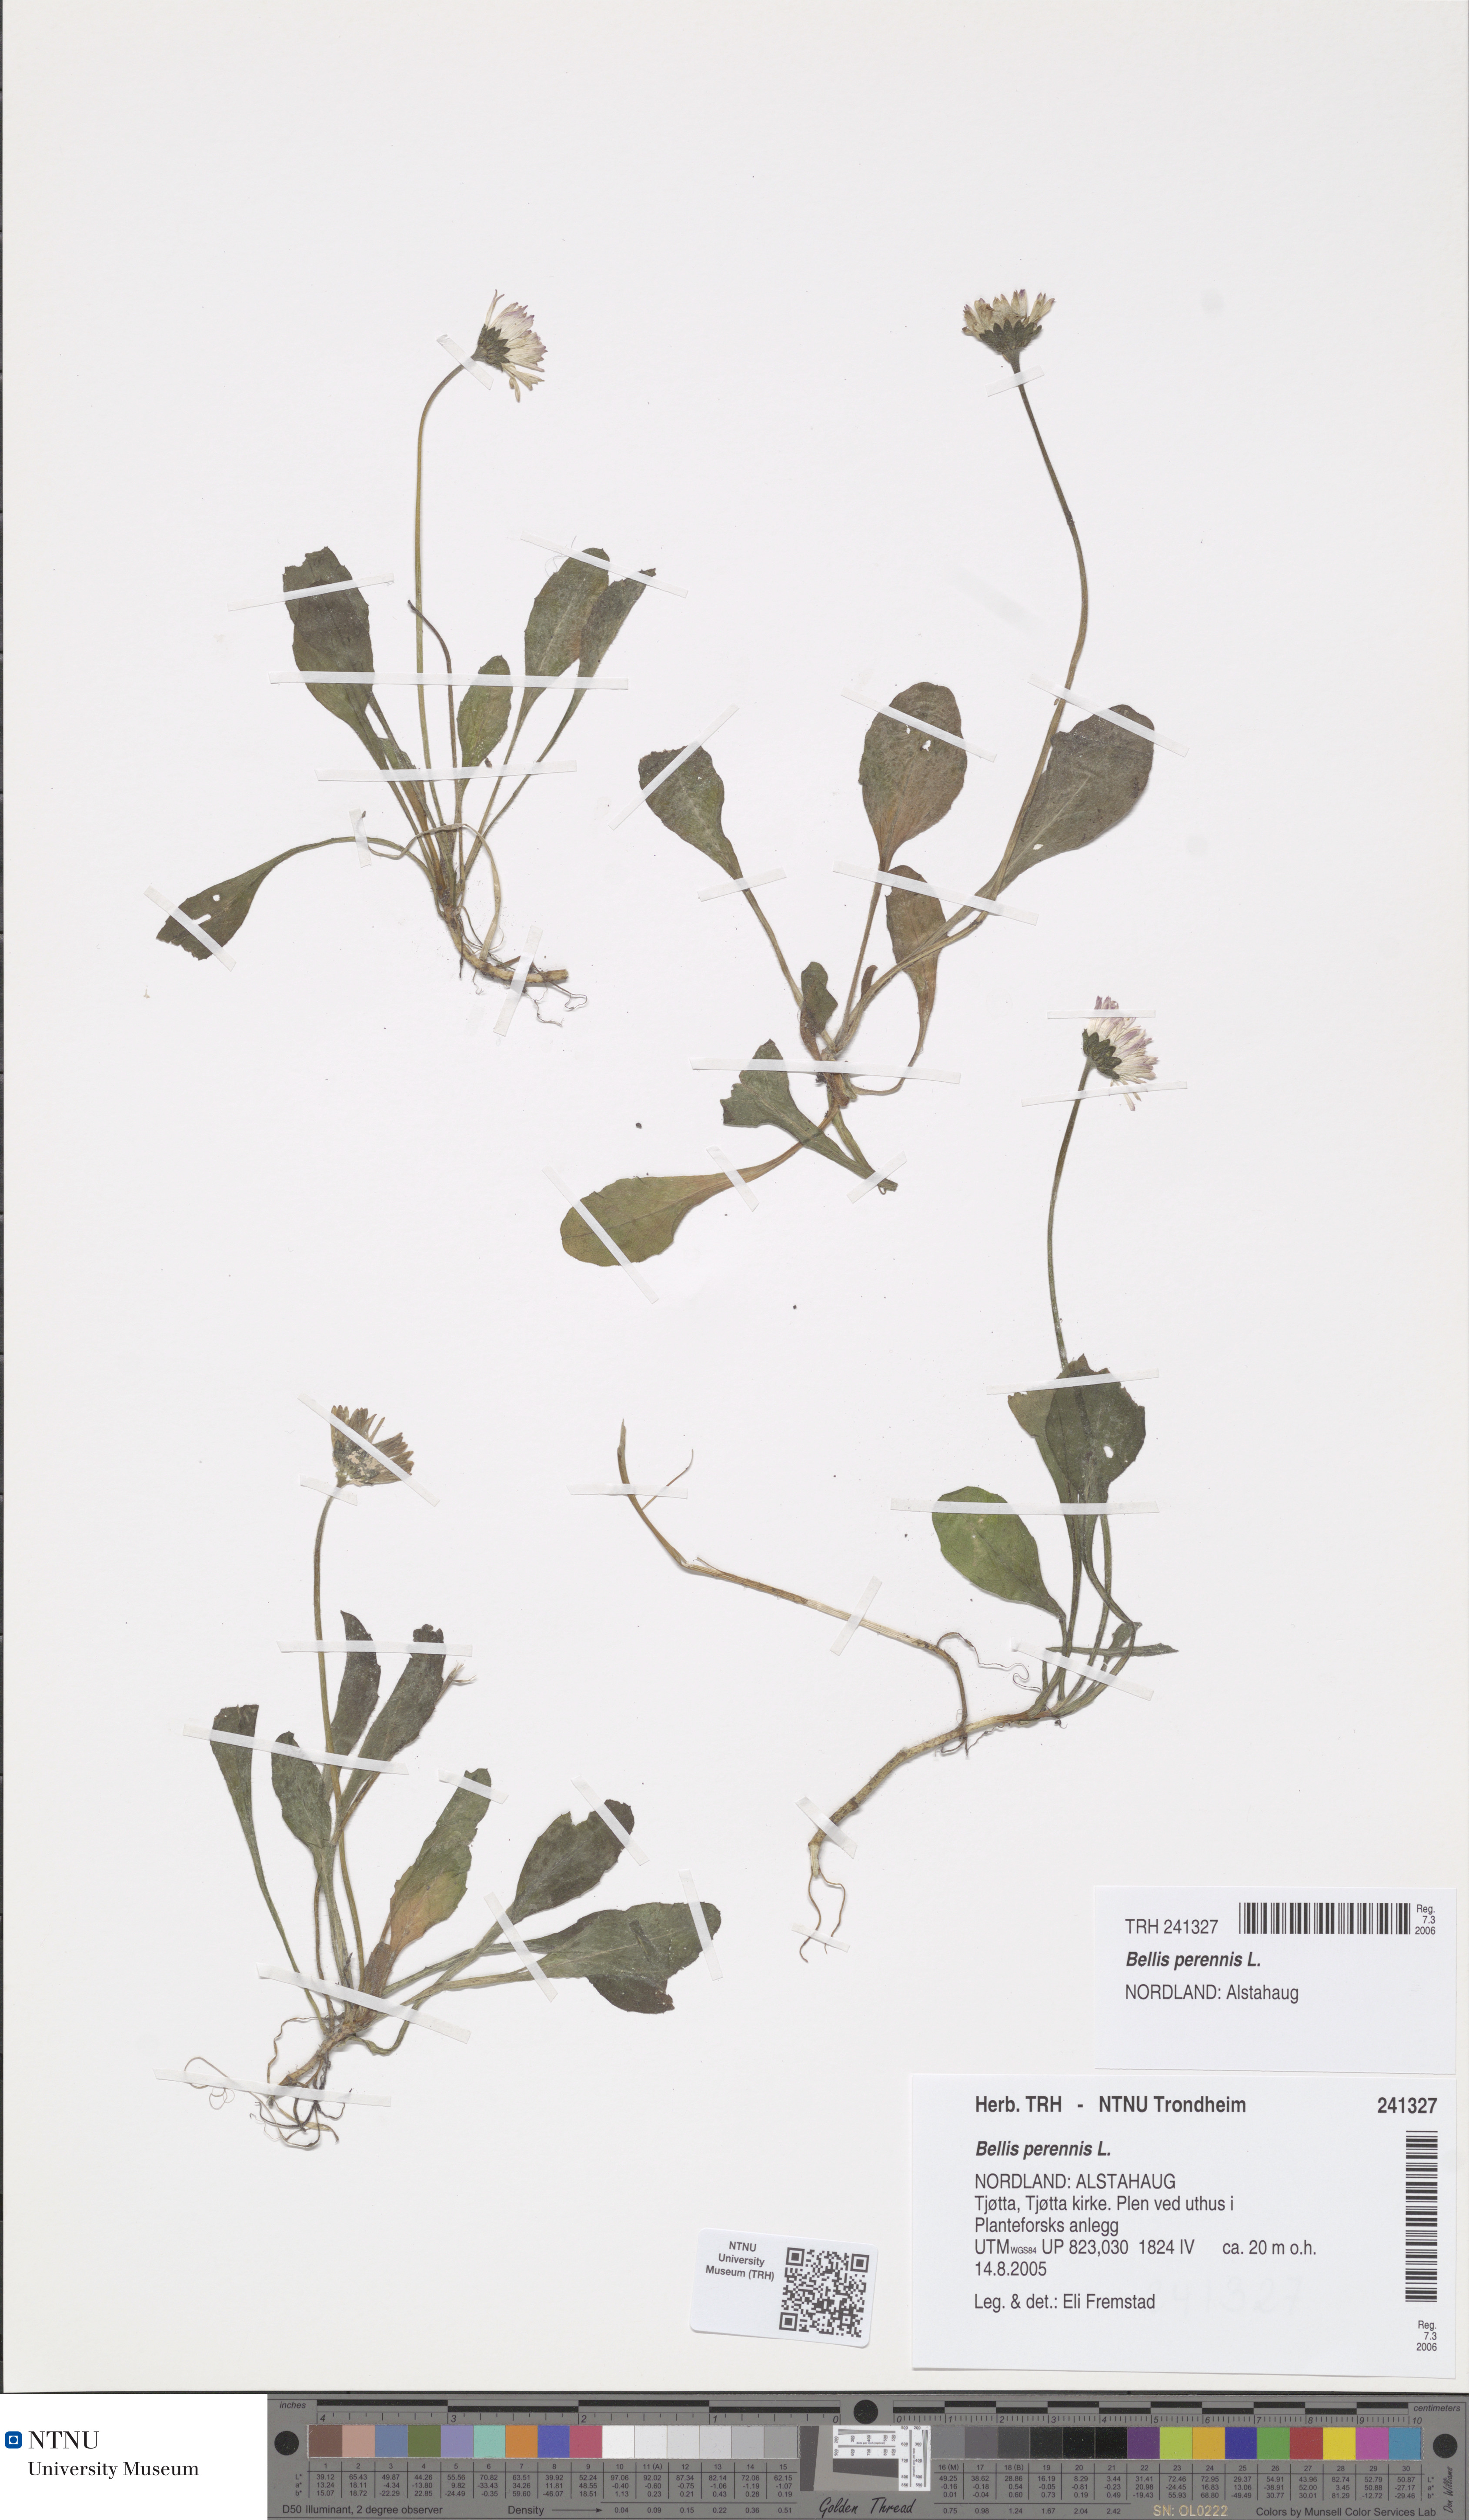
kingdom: Plantae
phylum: Tracheophyta
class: Magnoliopsida
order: Asterales
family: Asteraceae
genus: Bellis
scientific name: Bellis perennis
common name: Lawndaisy
